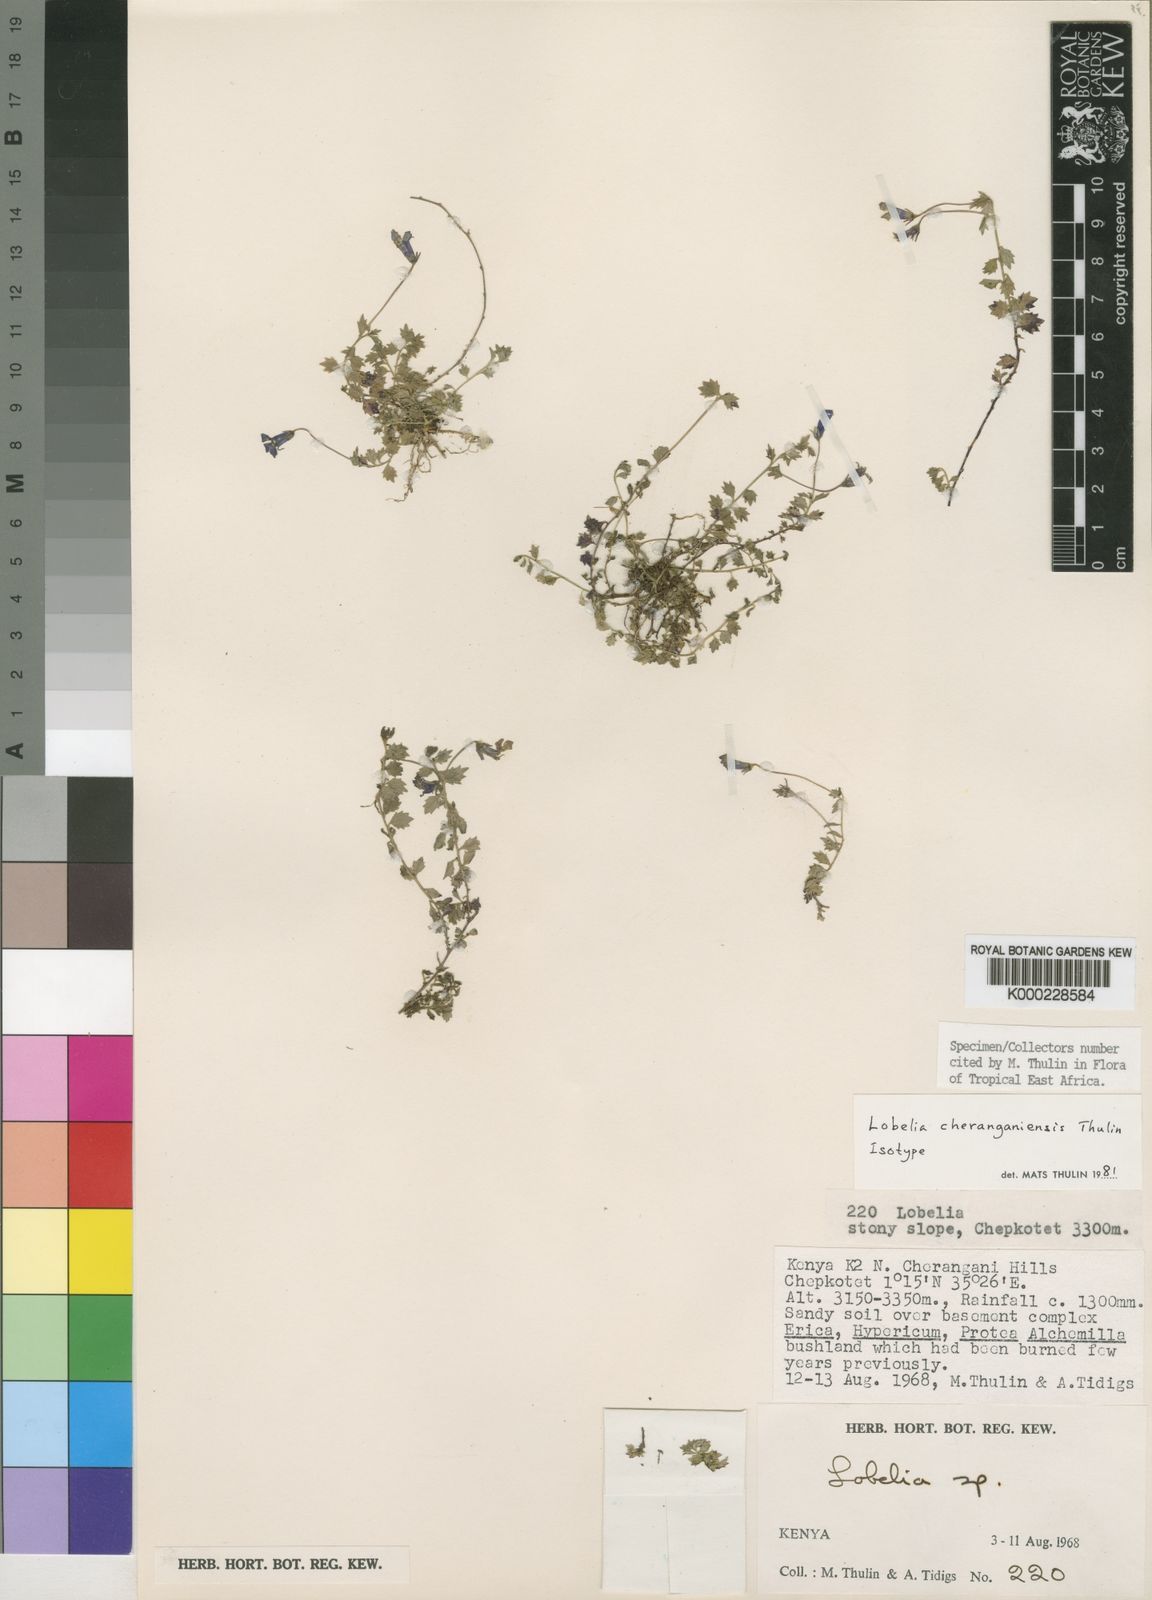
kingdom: Plantae
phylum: Tracheophyta
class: Magnoliopsida
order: Asterales
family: Campanulaceae
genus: Lobelia
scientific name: Lobelia cheranganiensis
